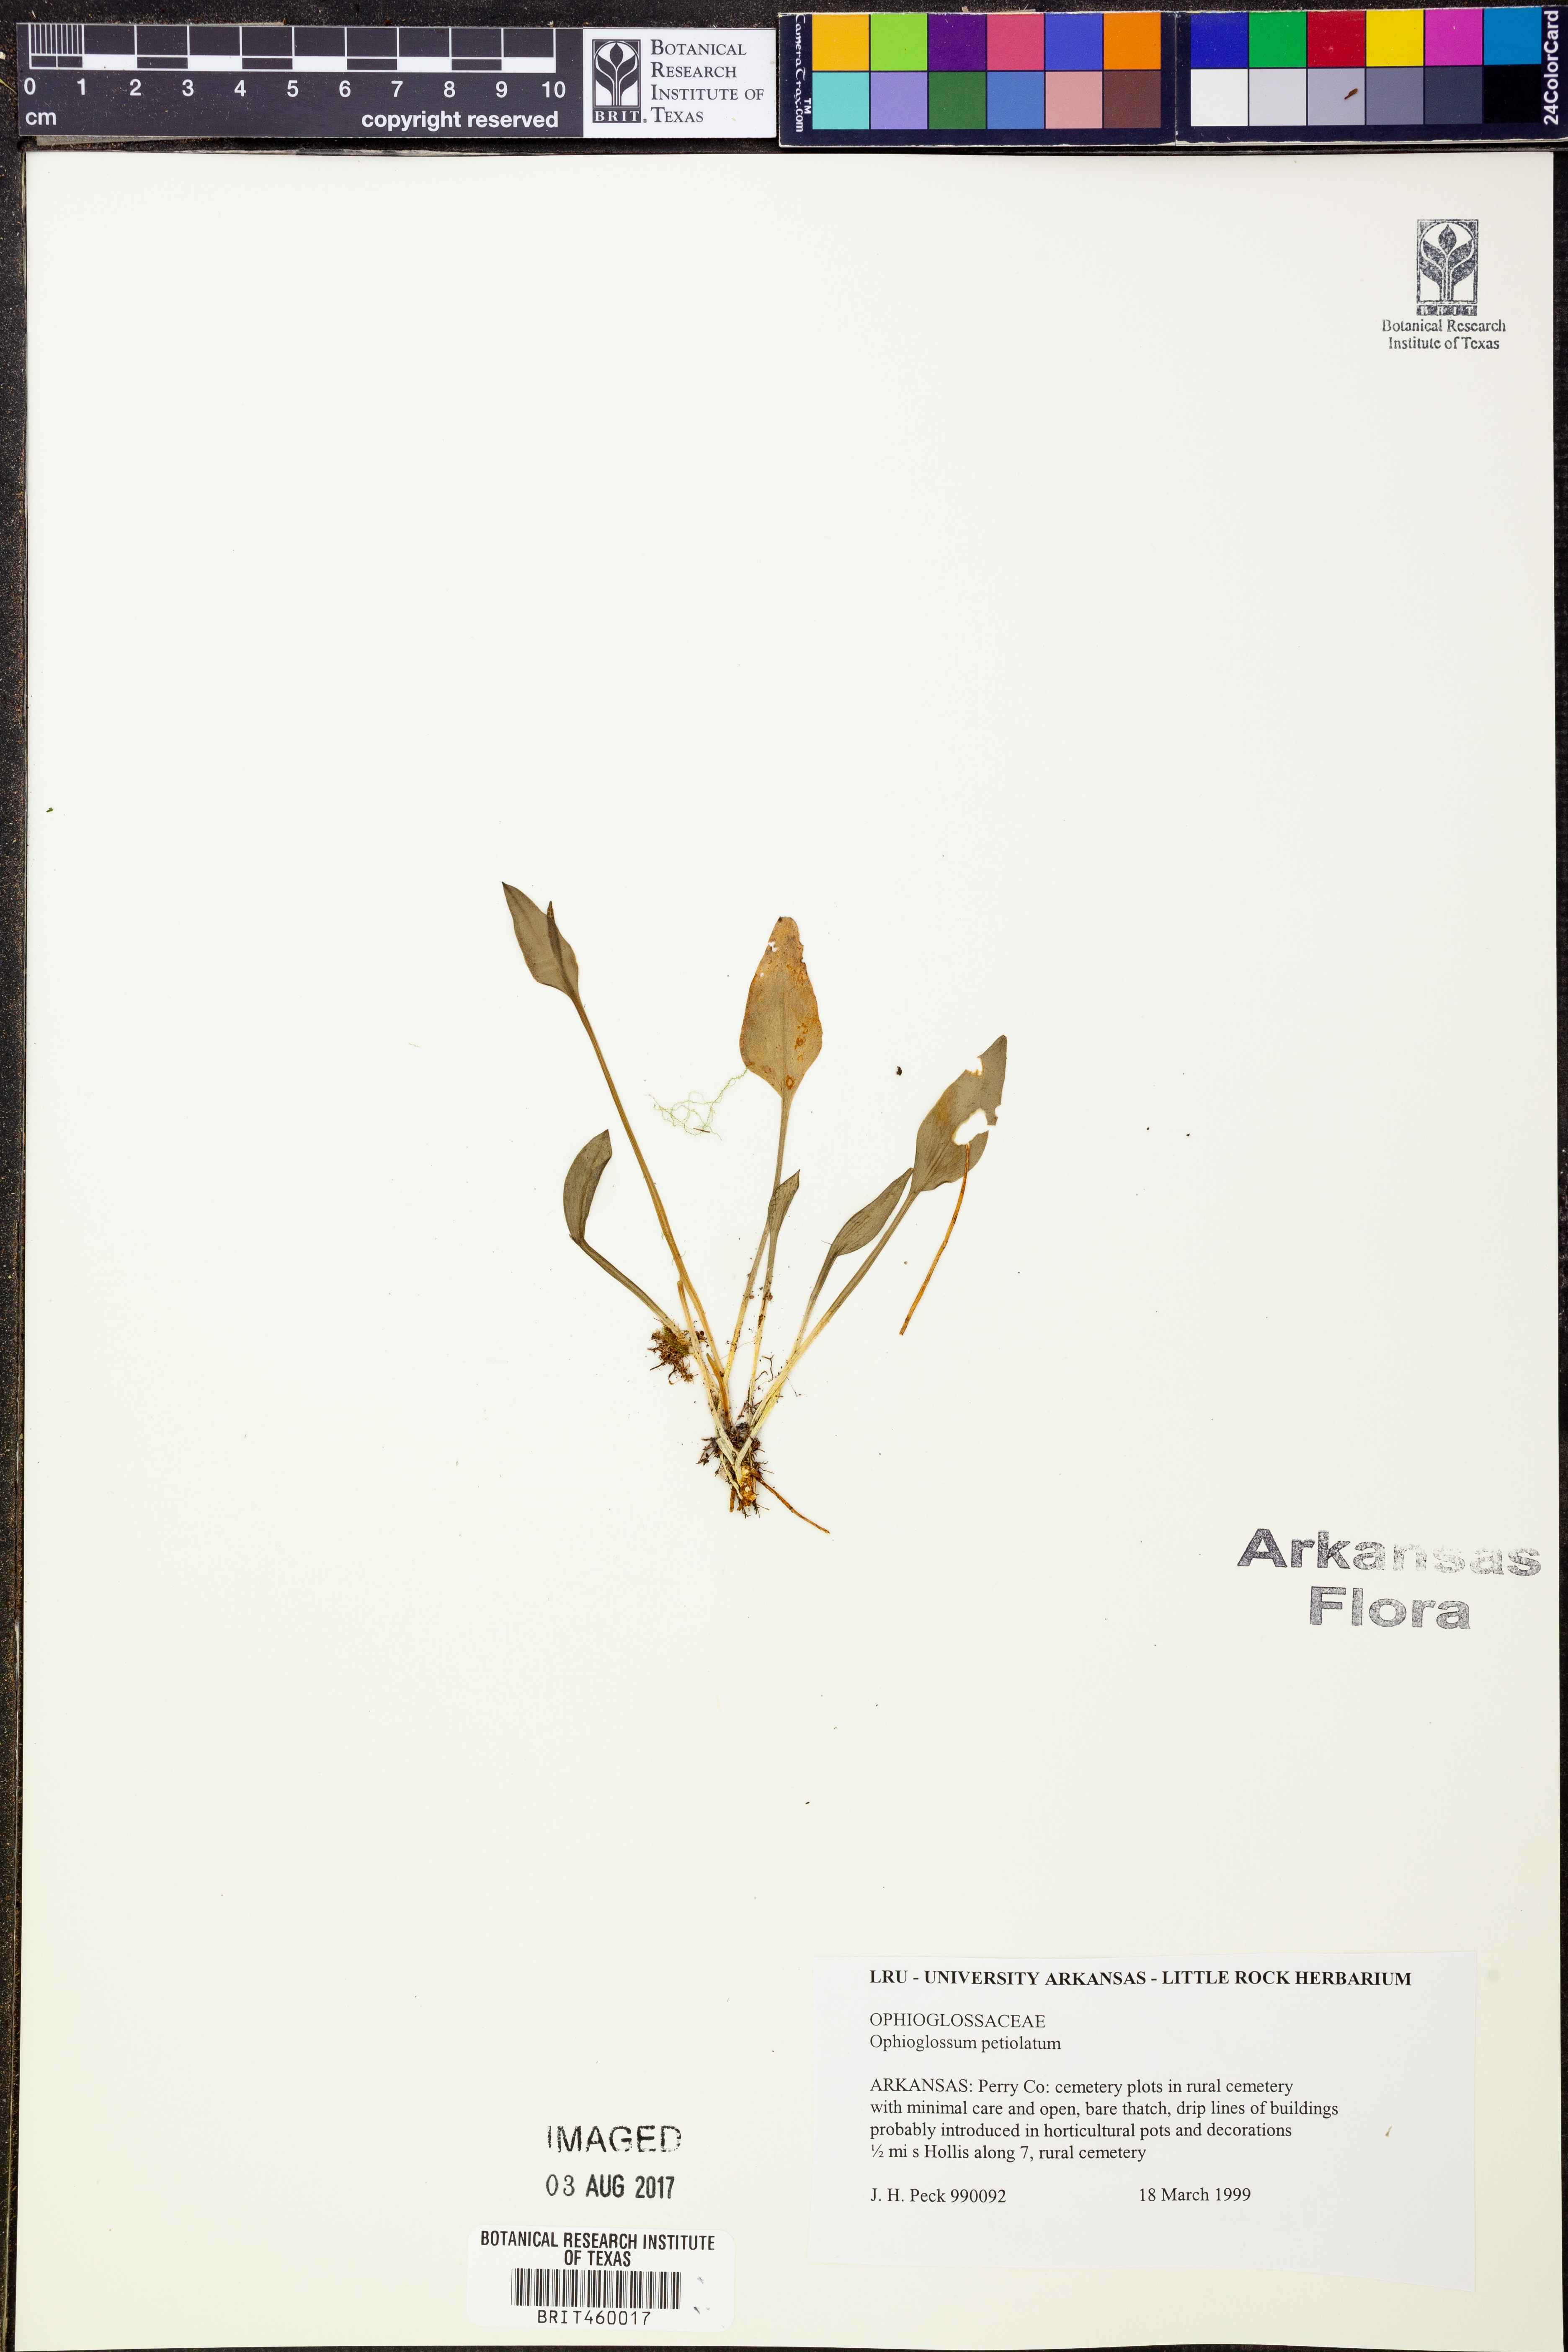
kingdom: Plantae
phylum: Tracheophyta
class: Polypodiopsida
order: Ophioglossales
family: Ophioglossaceae
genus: Ophioglossum
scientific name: Ophioglossum petiolatum
